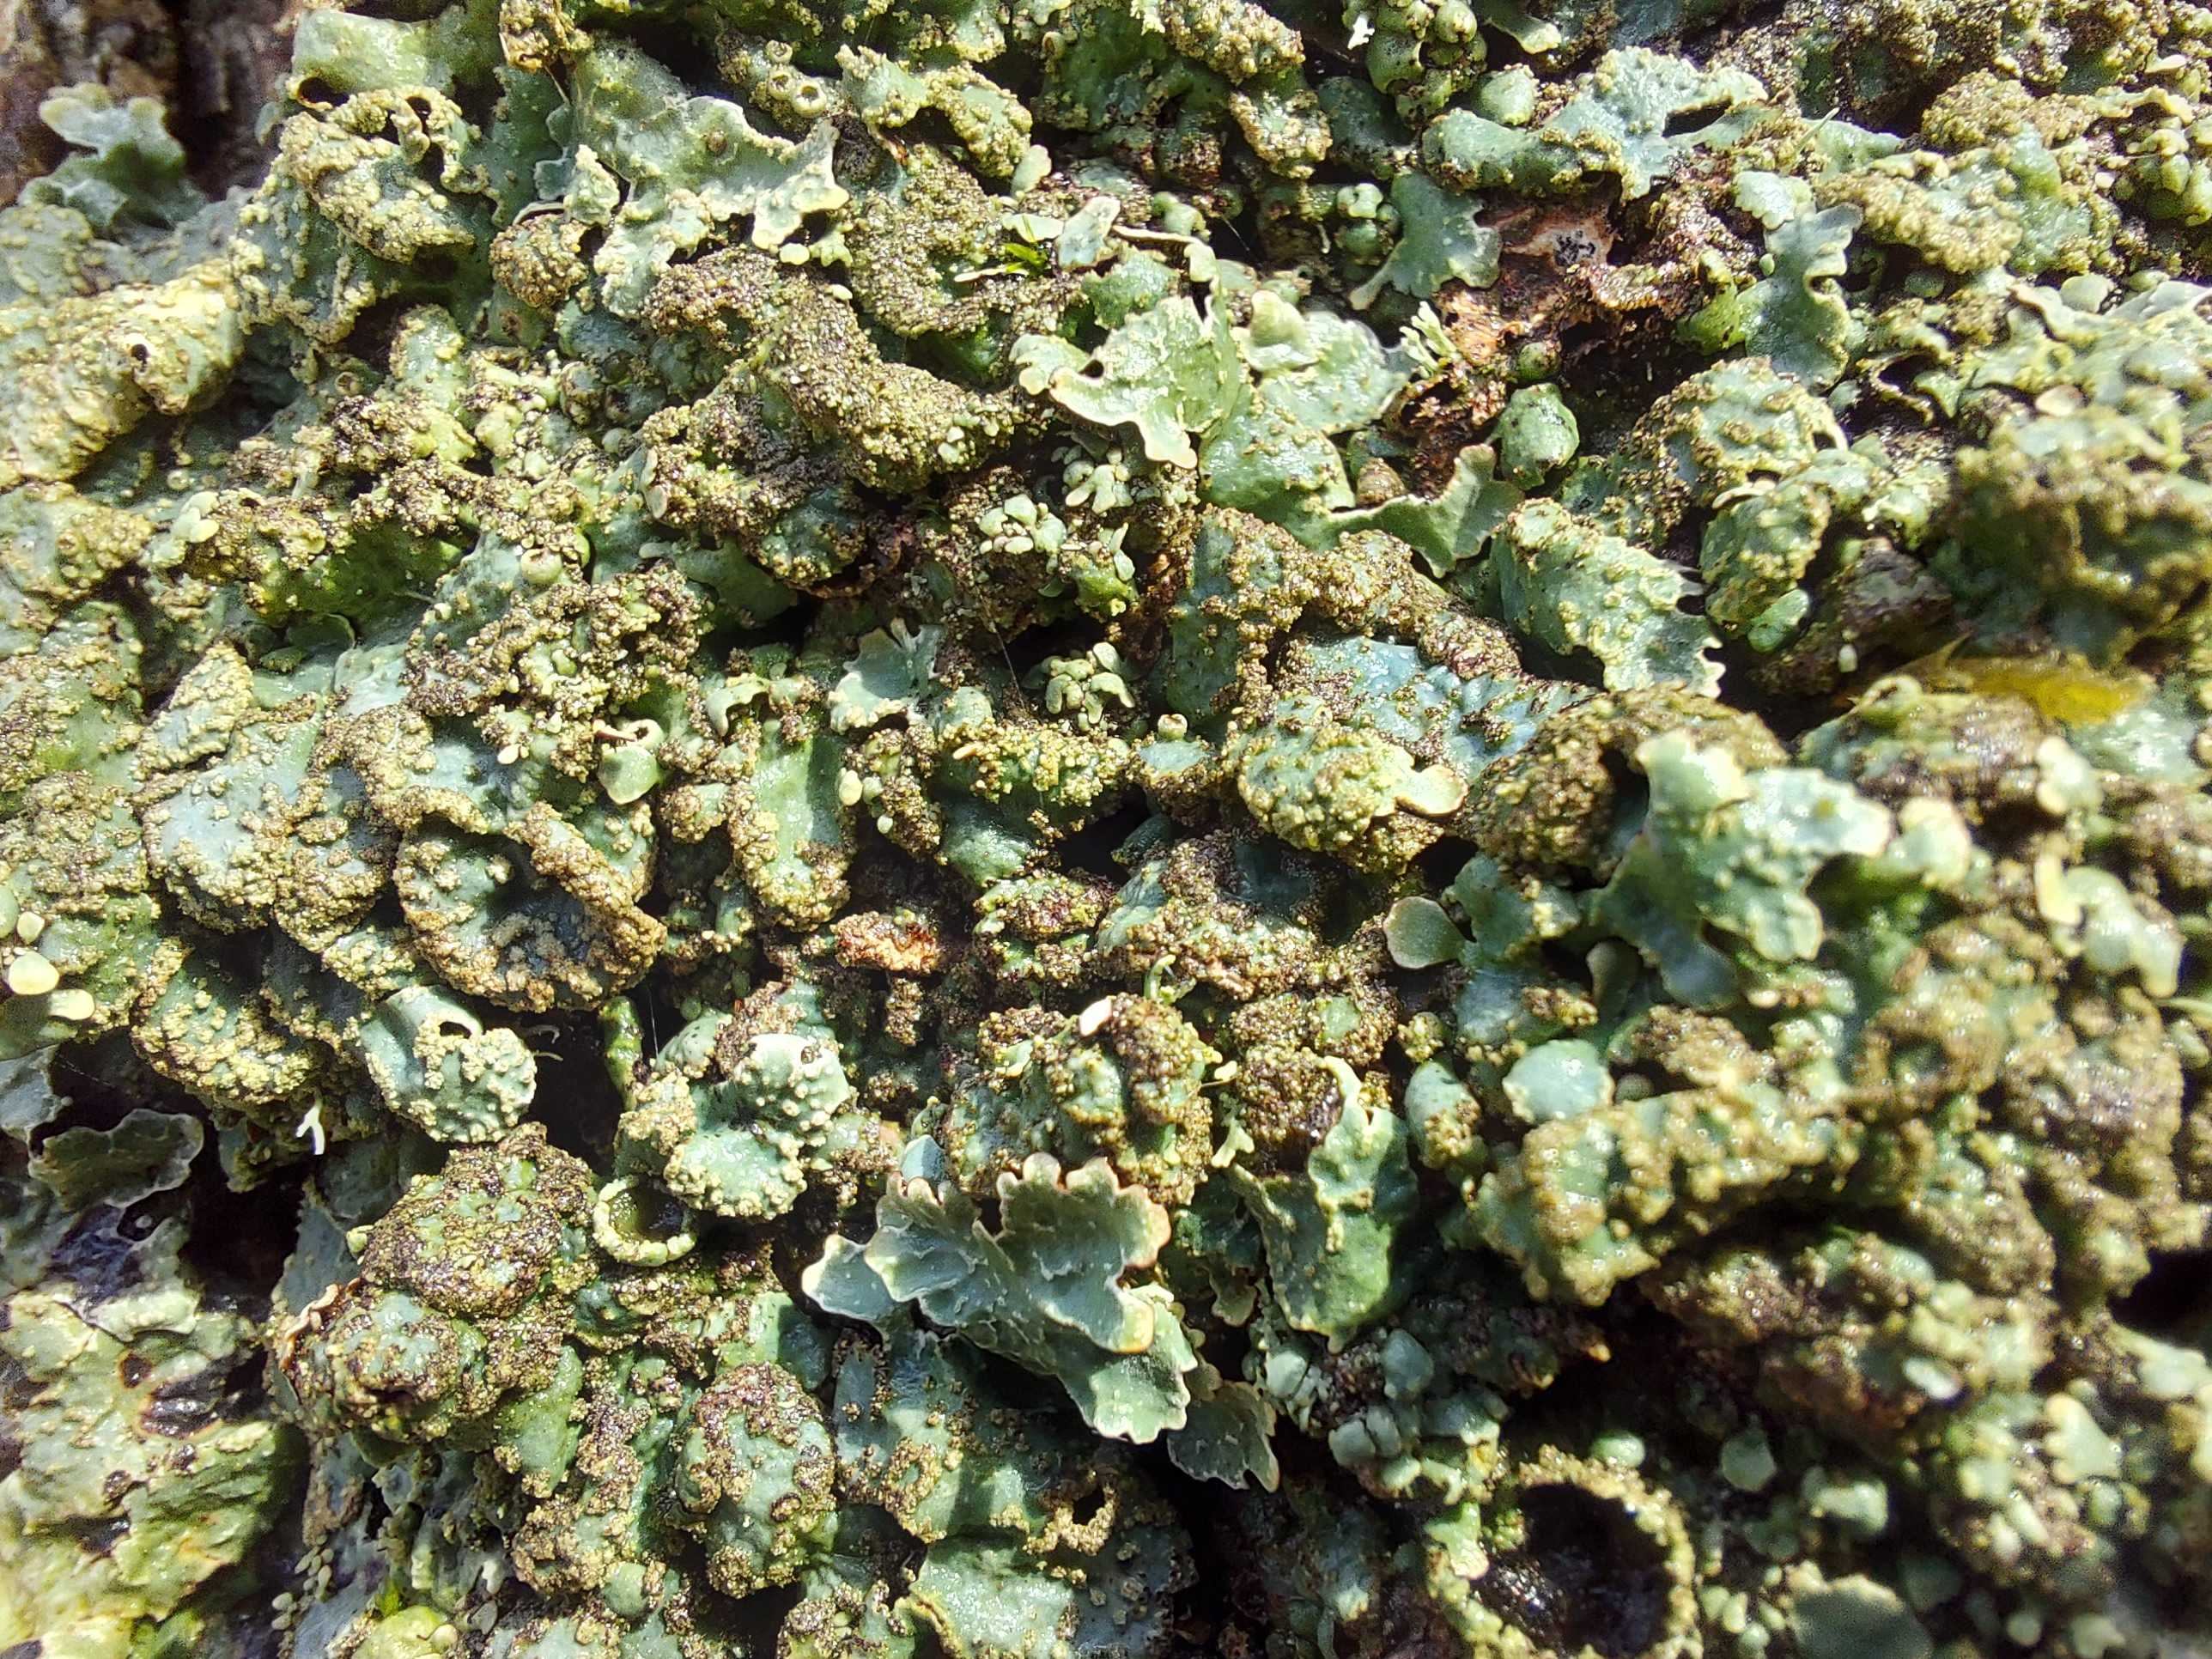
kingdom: Fungi
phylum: Ascomycota
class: Lecanoromycetes
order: Lecanorales
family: Parmeliaceae
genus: Parmelia
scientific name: Parmelia sulcata
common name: rynket skållav
